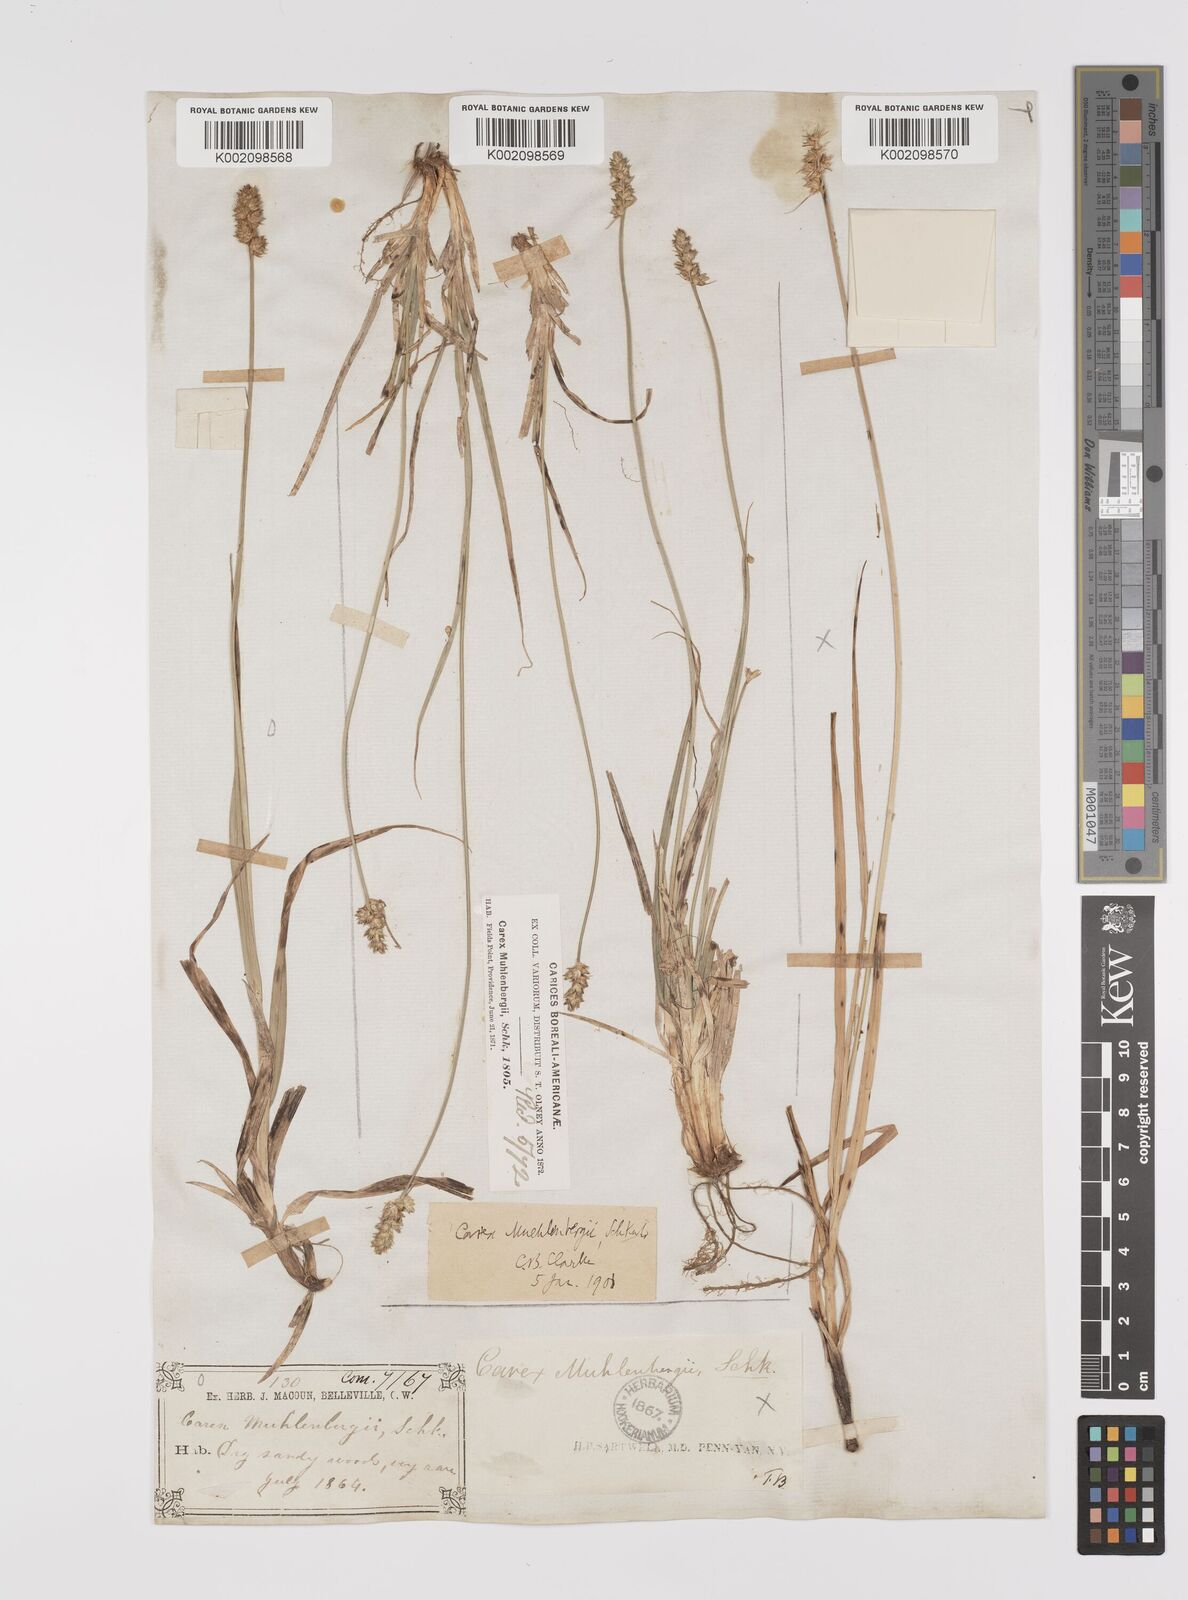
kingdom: Plantae
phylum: Tracheophyta
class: Liliopsida
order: Poales
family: Cyperaceae
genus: Carex
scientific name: Carex vulpinoidea
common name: American fox-sedge
